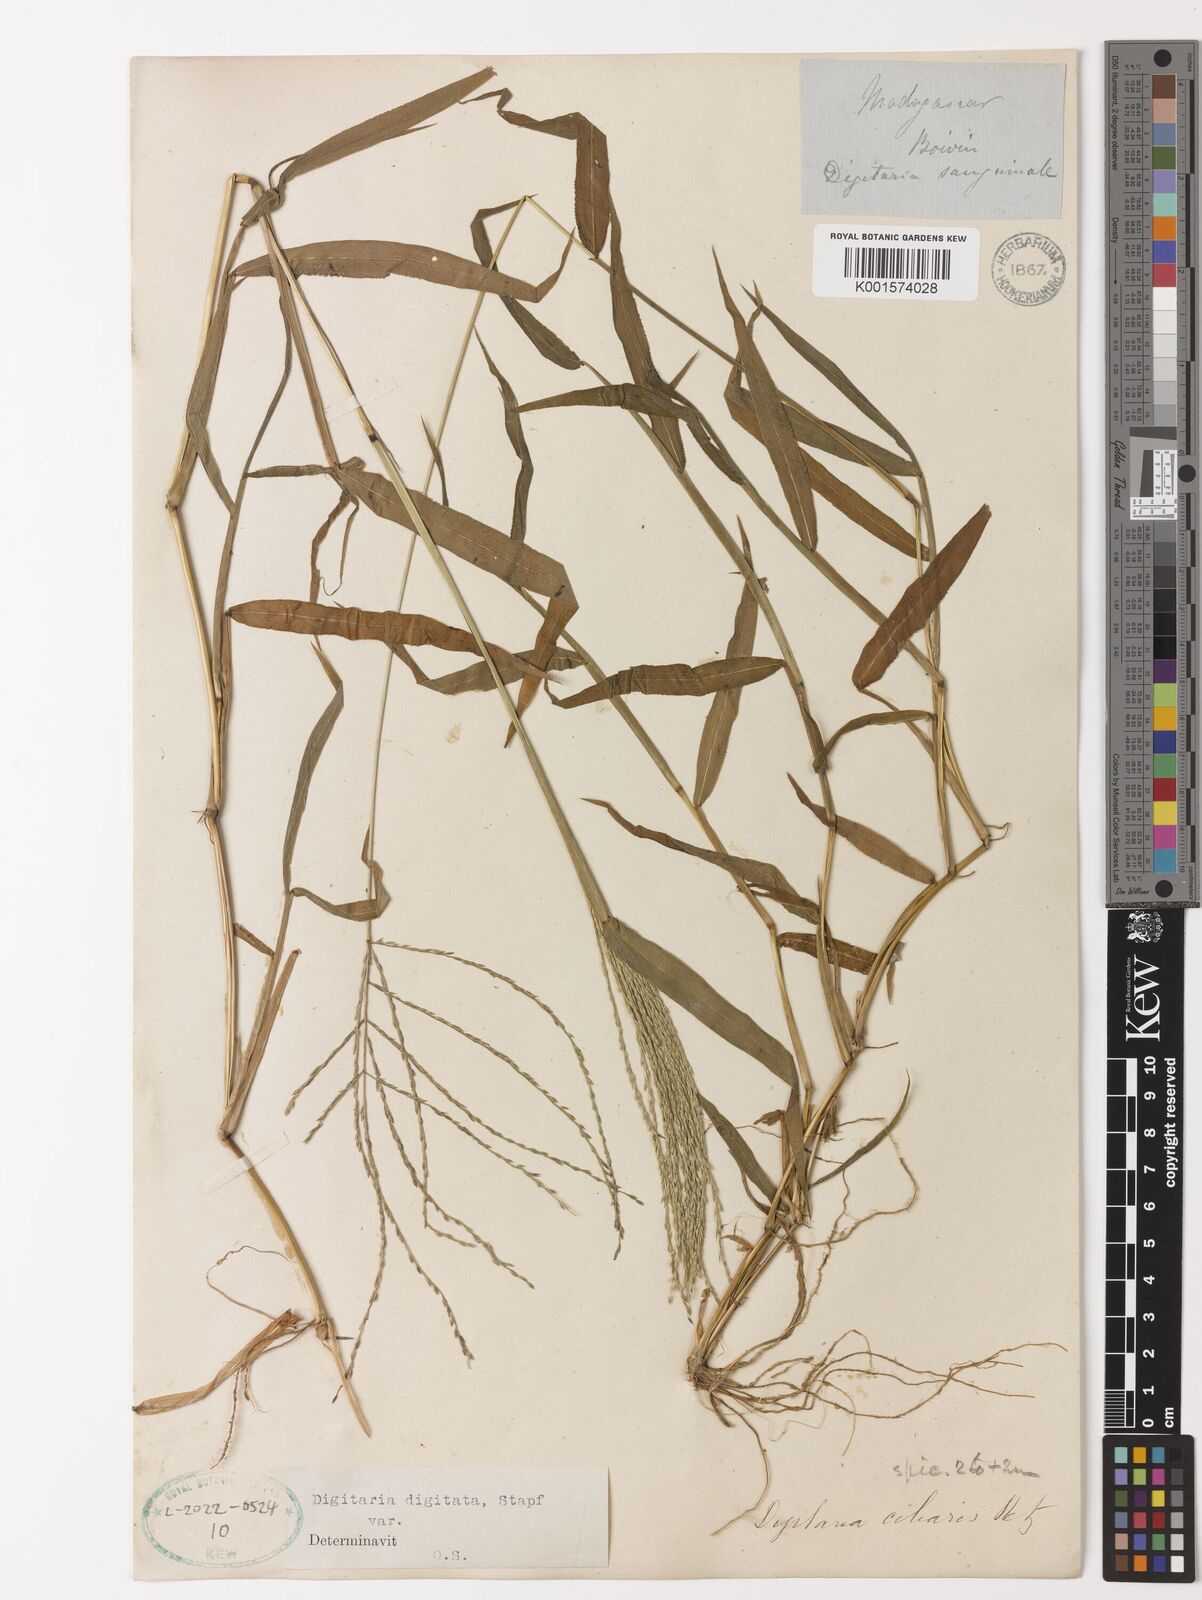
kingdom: Plantae
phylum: Tracheophyta
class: Liliopsida
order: Poales
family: Poaceae
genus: Digitaria
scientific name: Digitaria horizontalis
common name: Jamaican crabgrass
